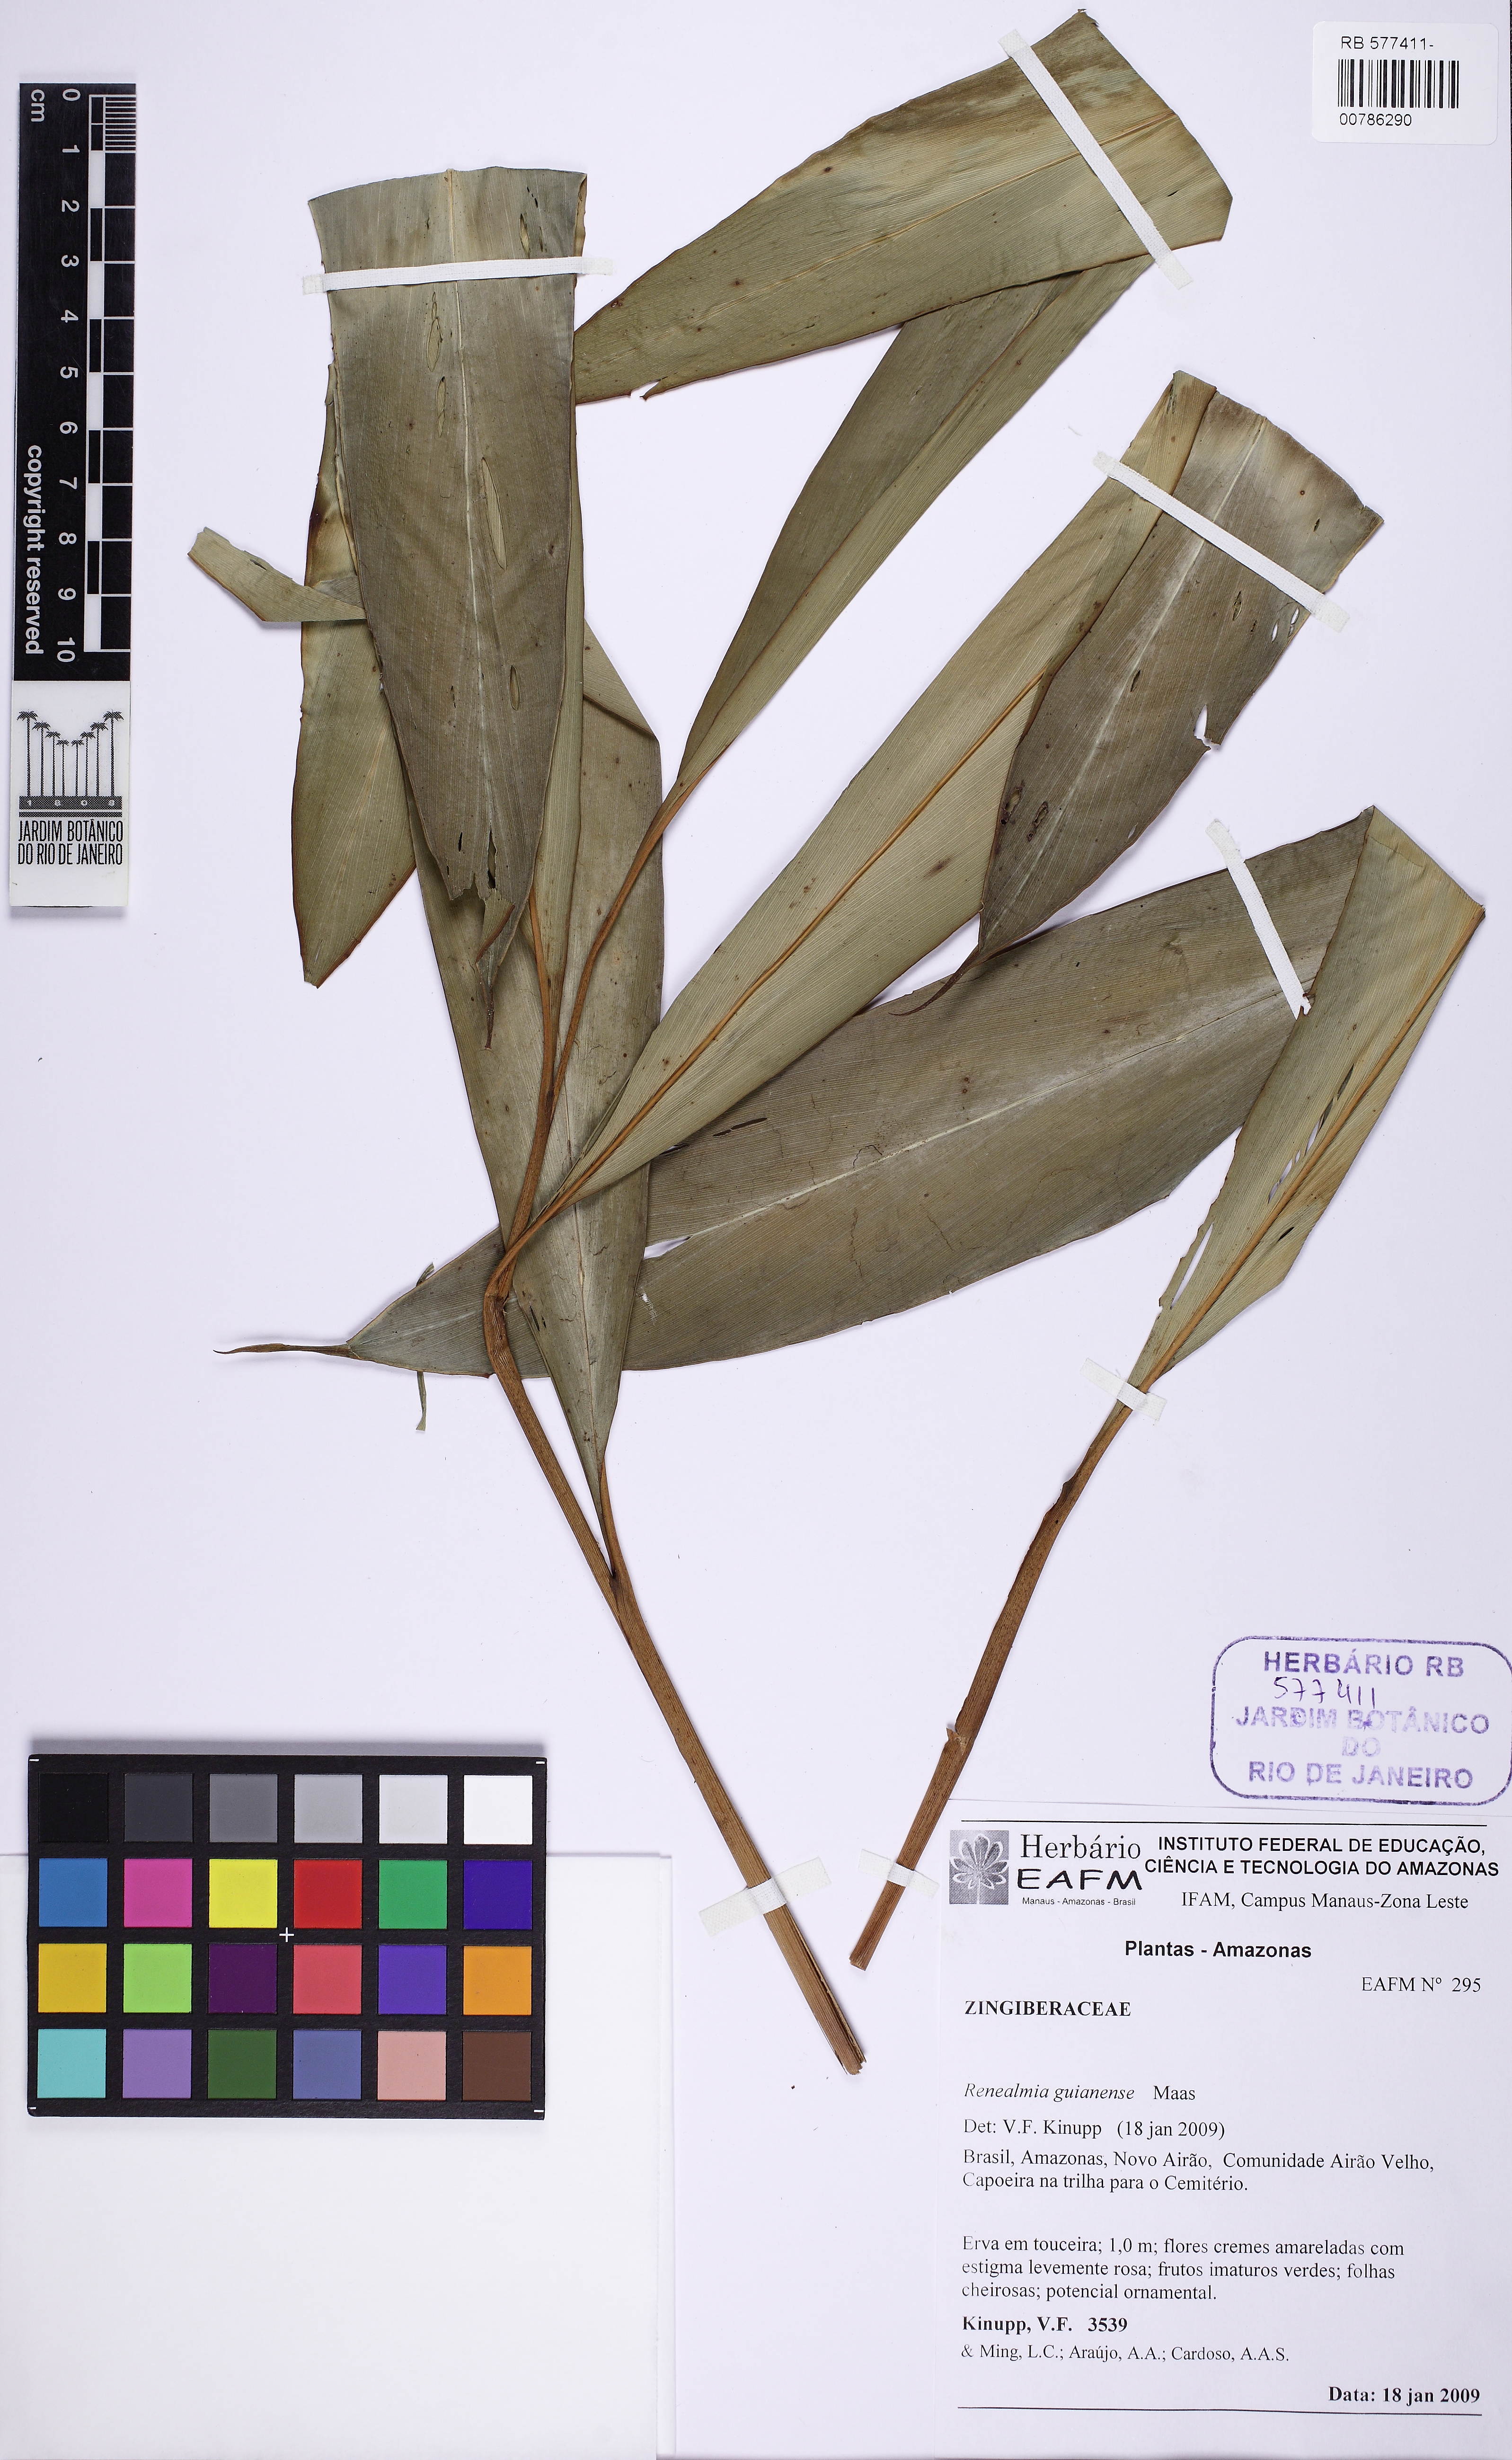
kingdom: Plantae
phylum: Tracheophyta
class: Liliopsida
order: Zingiberales
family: Zingiberaceae
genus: Renealmia
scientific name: Renealmia guianensis
